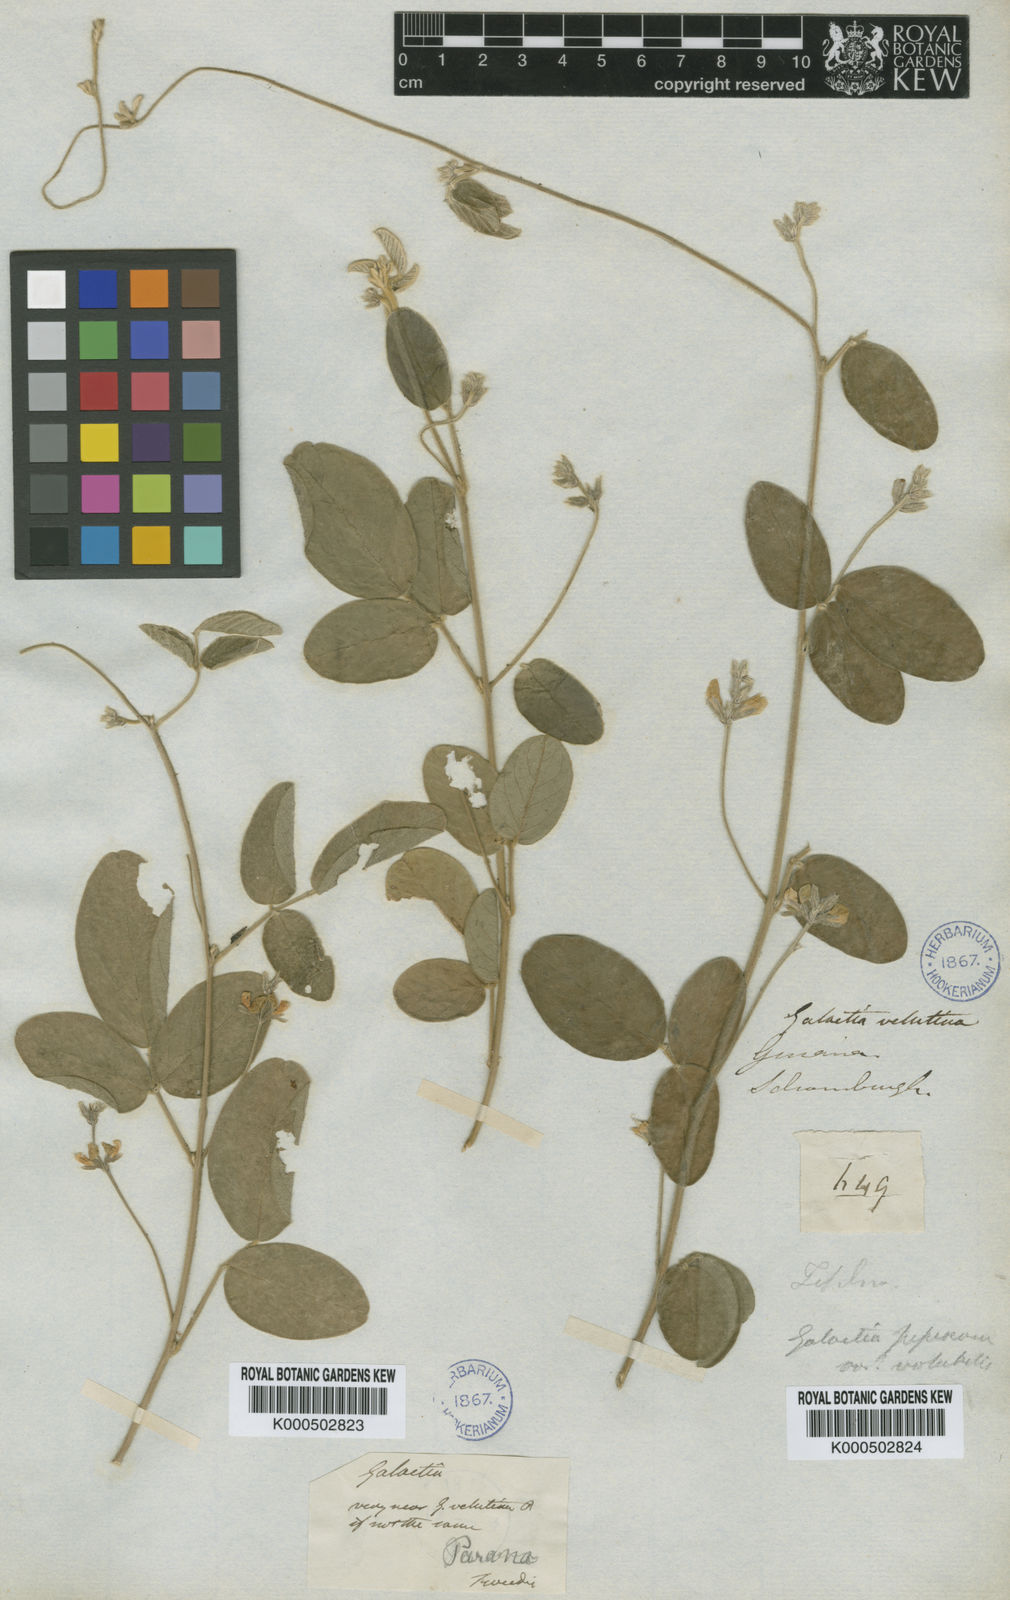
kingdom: Plantae
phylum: Tracheophyta
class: Magnoliopsida
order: Fabales
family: Fabaceae
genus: Galactia
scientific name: Galactia latisiliqua
